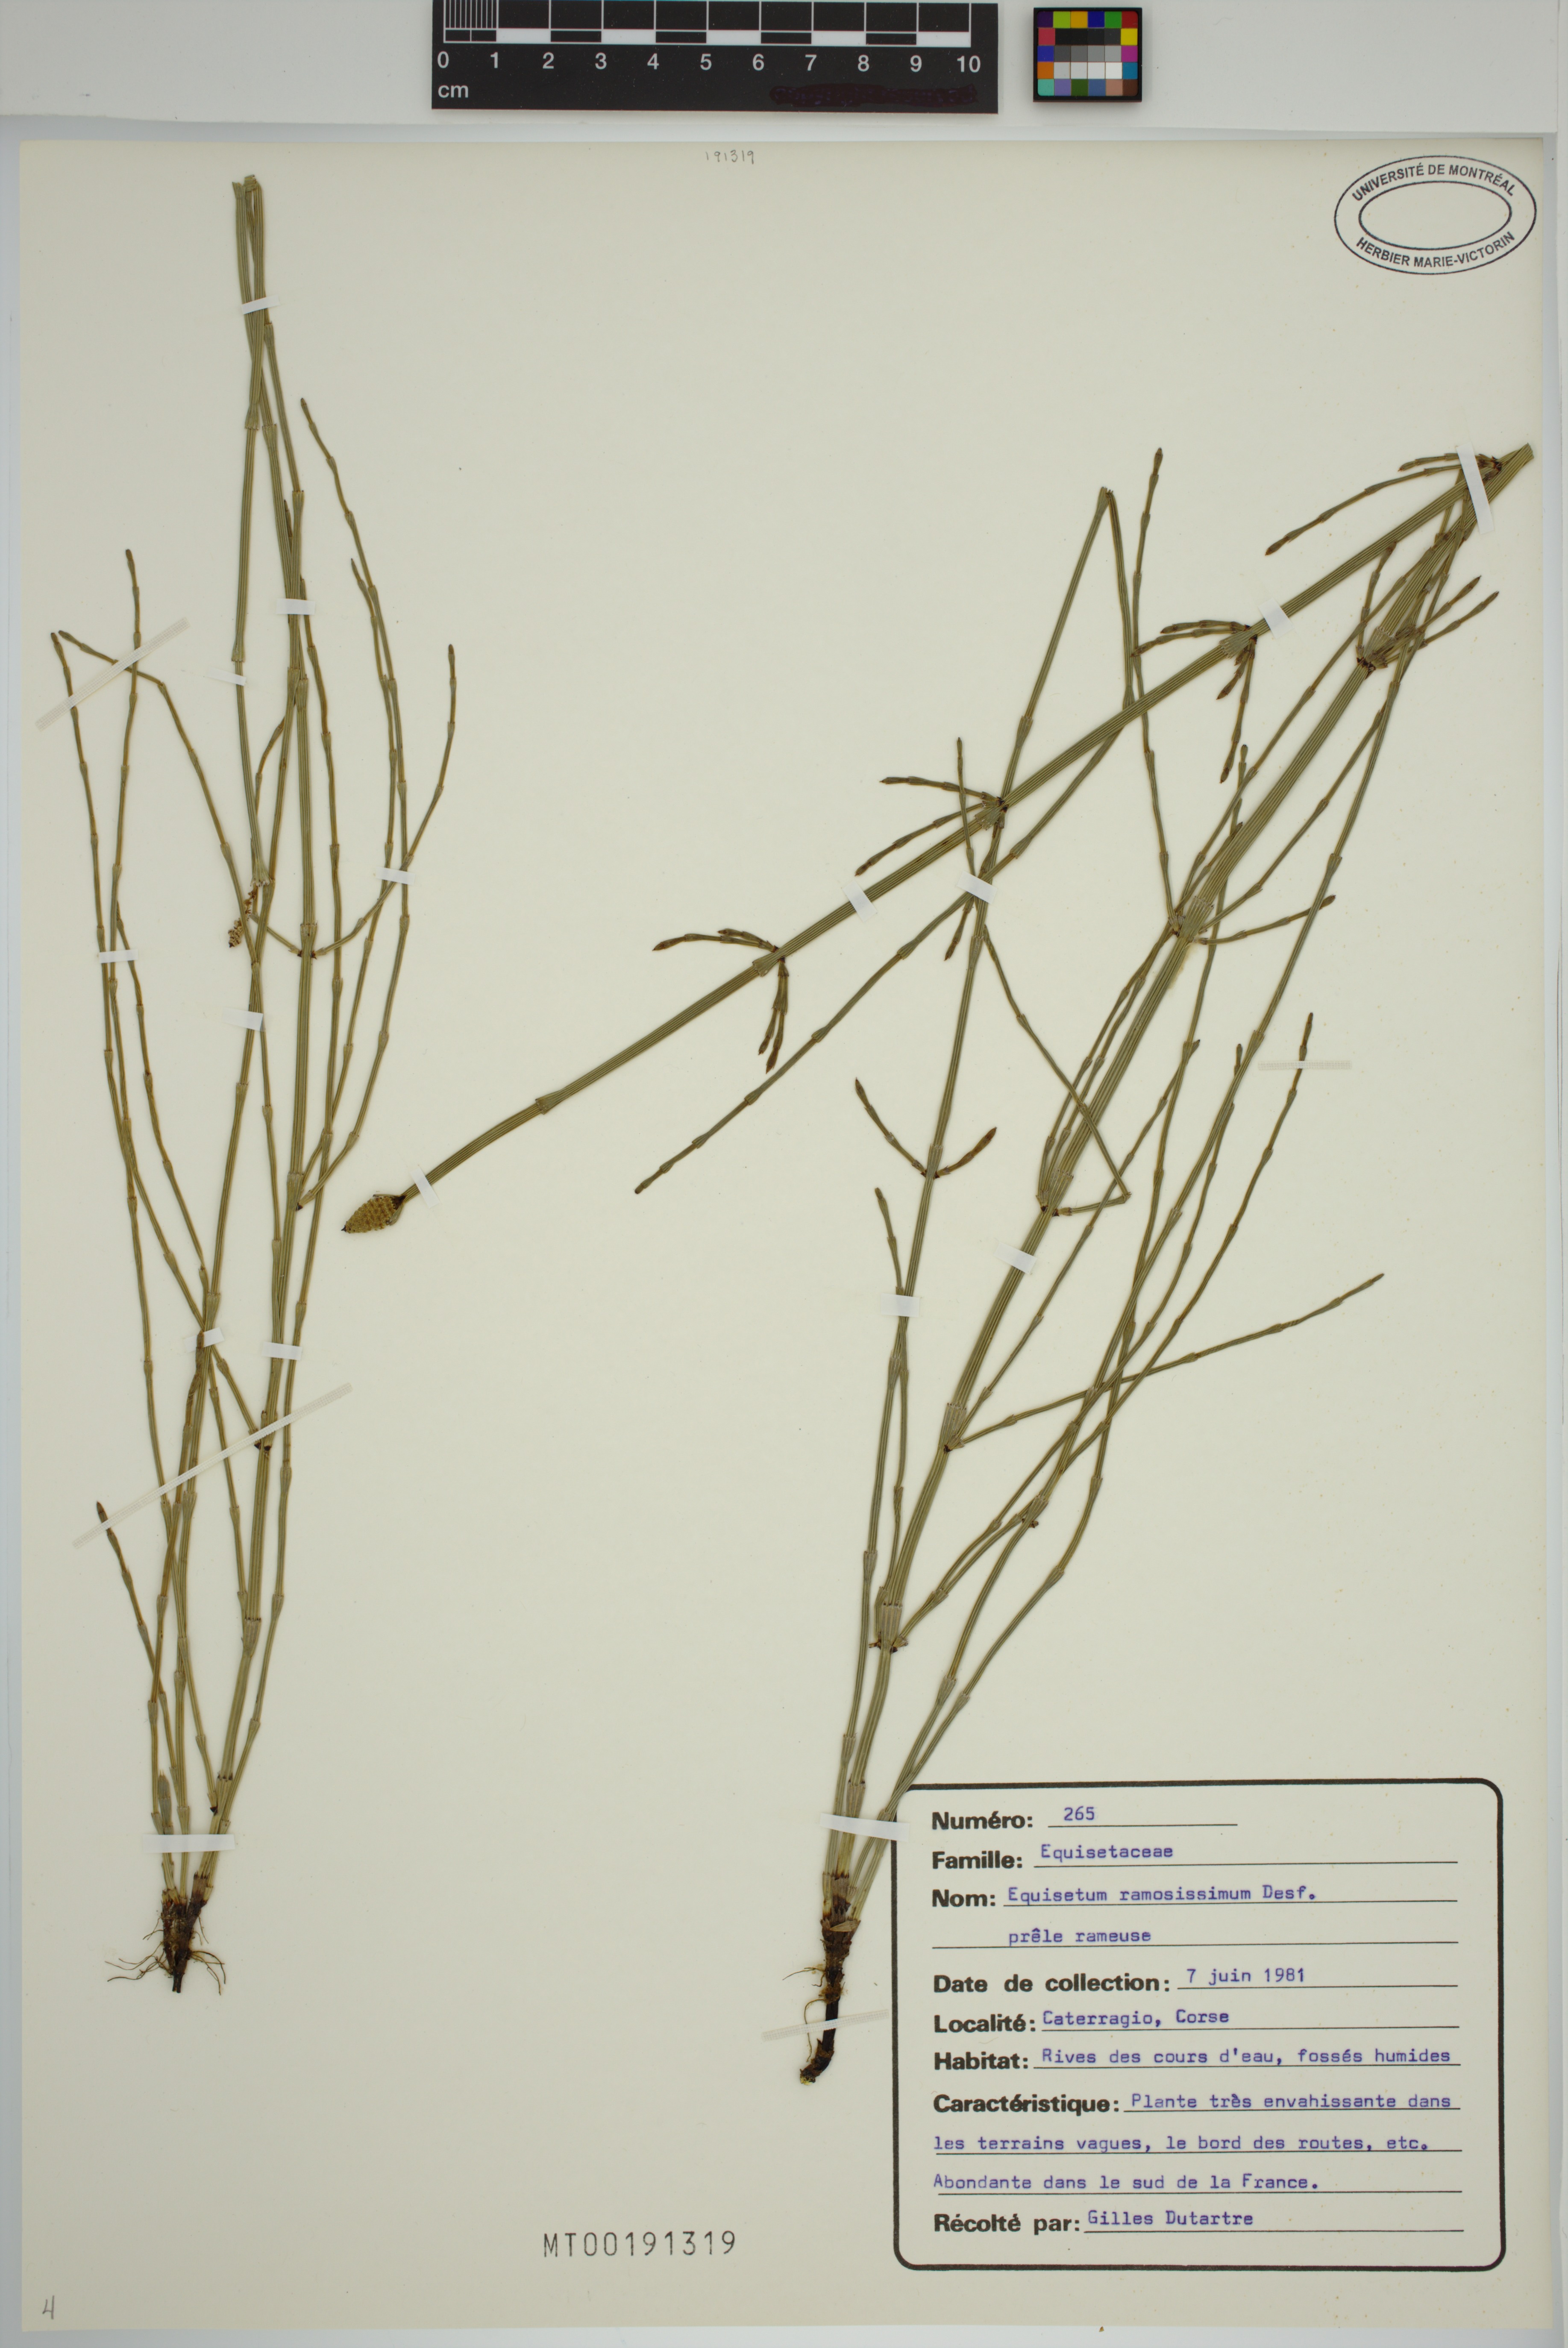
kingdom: Plantae
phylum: Tracheophyta
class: Polypodiopsida
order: Equisetales
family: Equisetaceae
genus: Equisetum
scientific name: Equisetum ramosissimum
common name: Branched horsetail
